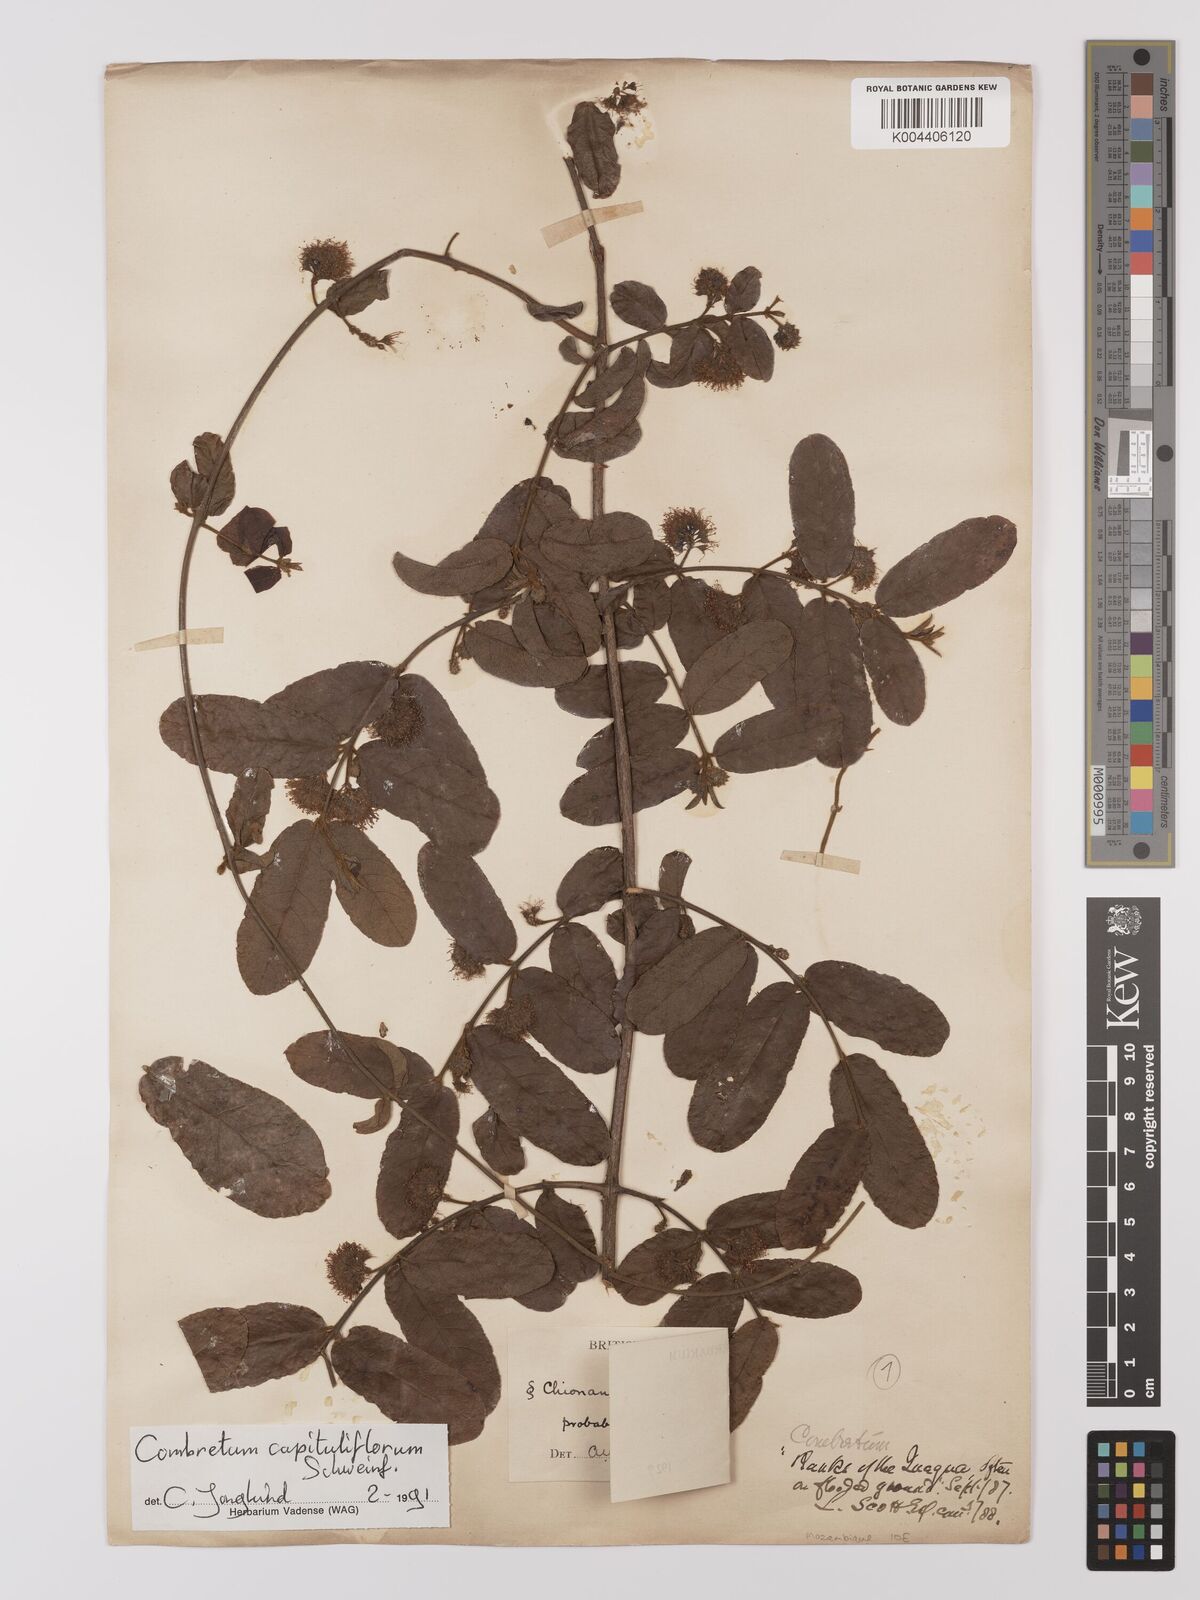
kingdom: Plantae
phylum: Tracheophyta
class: Magnoliopsida
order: Myrtales
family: Combretaceae
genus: Combretum
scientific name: Combretum capituliflorum
